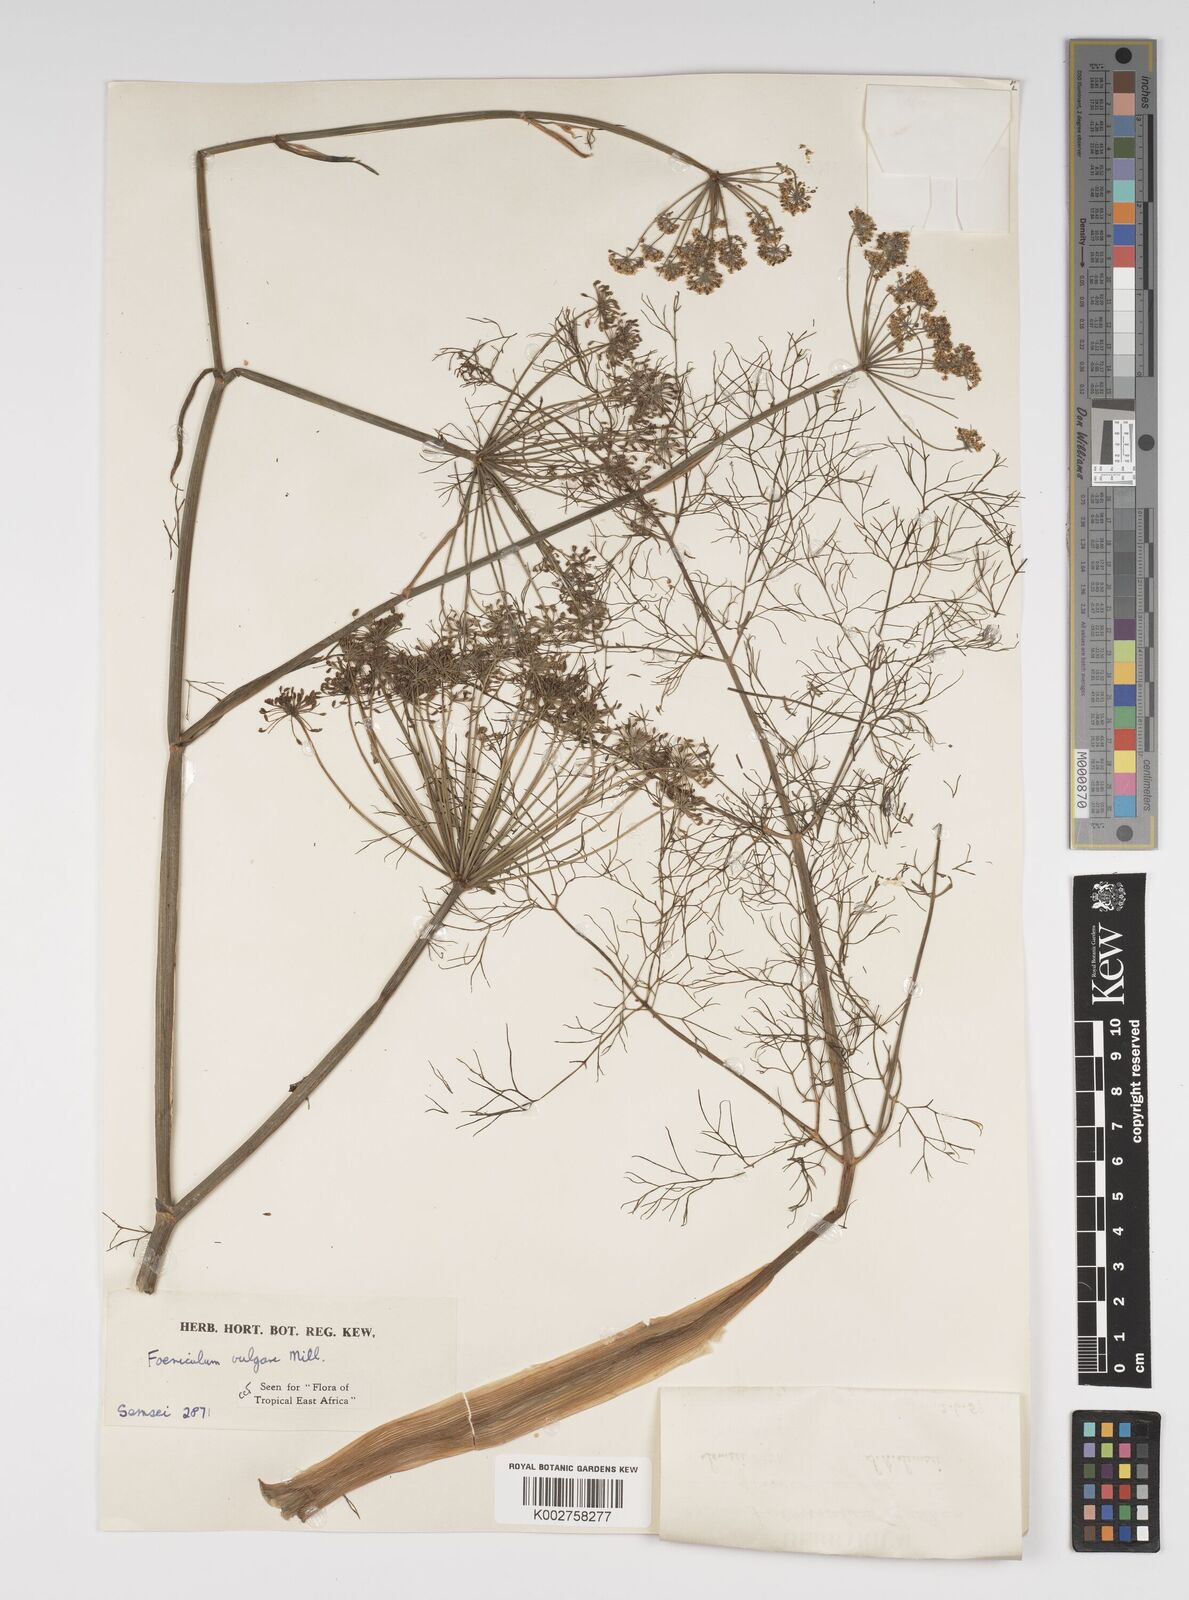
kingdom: Plantae
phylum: Tracheophyta
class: Magnoliopsida
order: Apiales
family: Apiaceae
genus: Foeniculum
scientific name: Foeniculum vulgare
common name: Fennel
